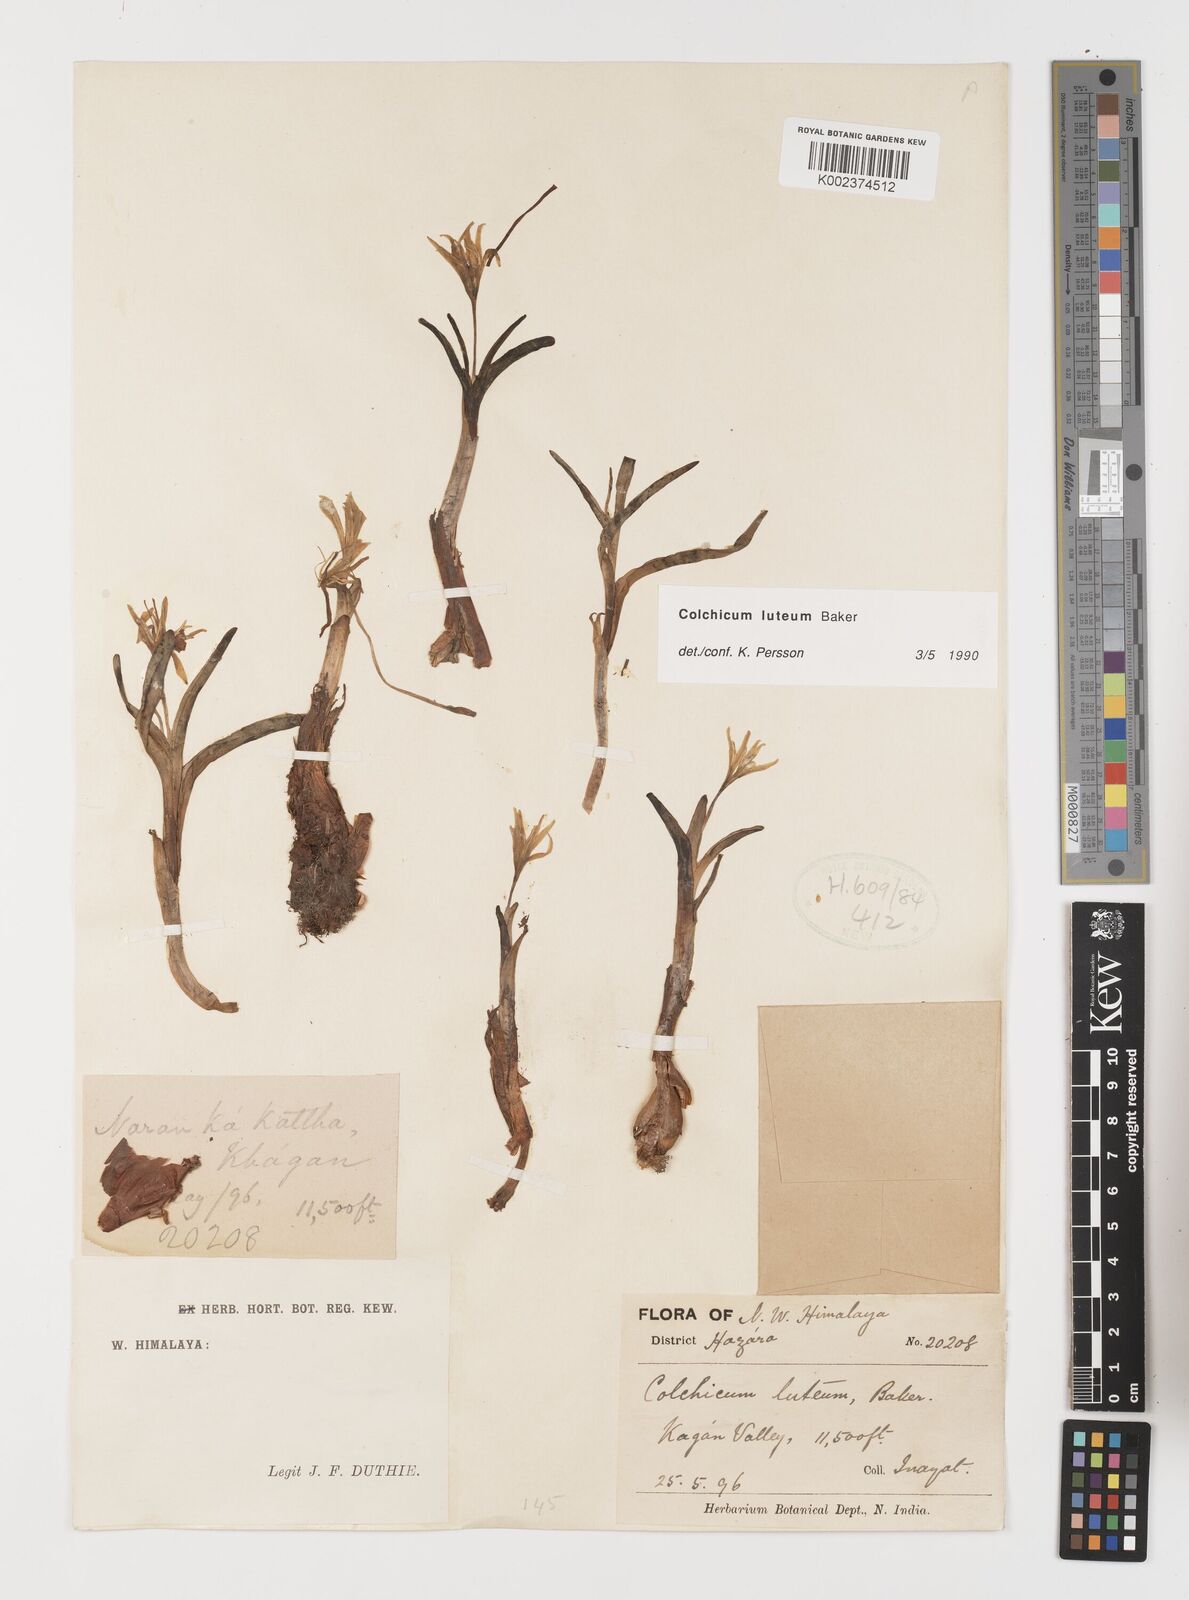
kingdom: Plantae
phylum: Tracheophyta
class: Liliopsida
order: Liliales
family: Colchicaceae
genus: Colchicum
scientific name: Colchicum luteum
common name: Indian colchicum
